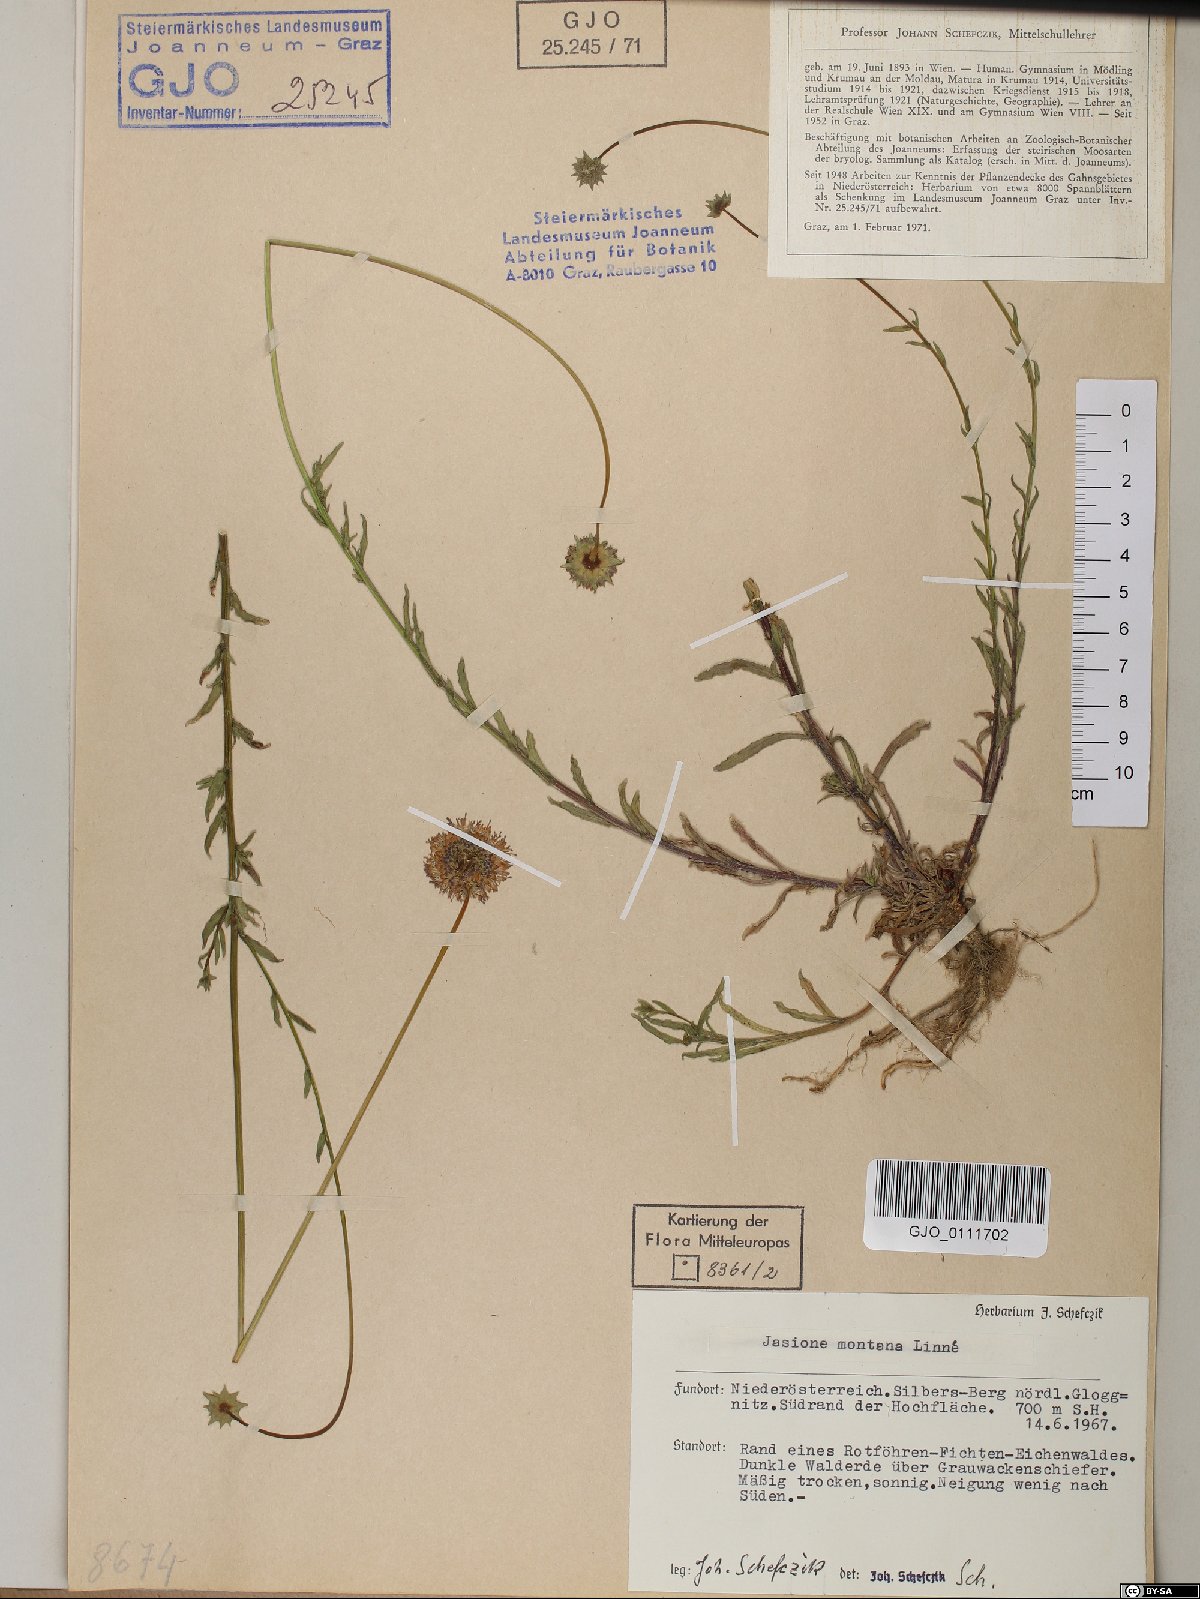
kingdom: Plantae
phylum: Tracheophyta
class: Magnoliopsida
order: Asterales
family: Campanulaceae
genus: Jasione
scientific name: Jasione montana
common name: Sheep's-bit
